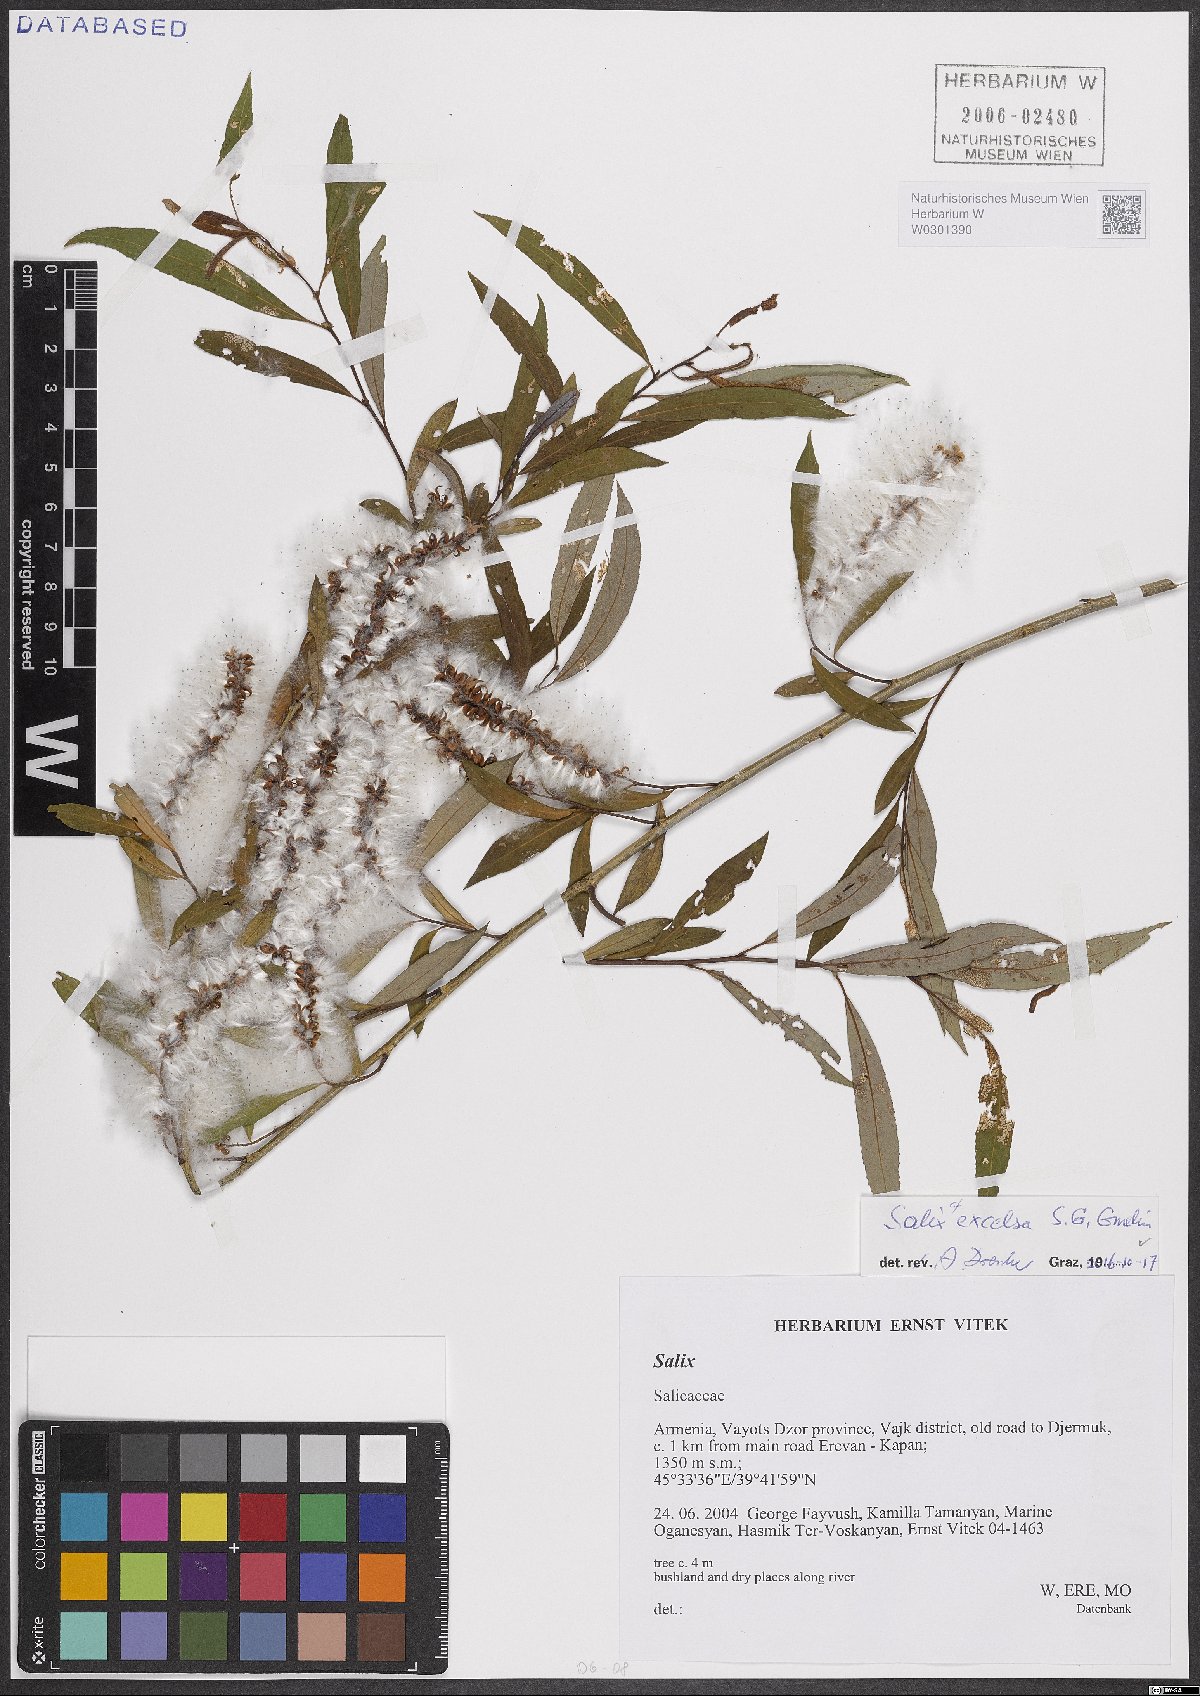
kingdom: Plantae
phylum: Tracheophyta
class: Magnoliopsida
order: Malpighiales
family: Salicaceae
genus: Salix
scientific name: Salix excelsa
